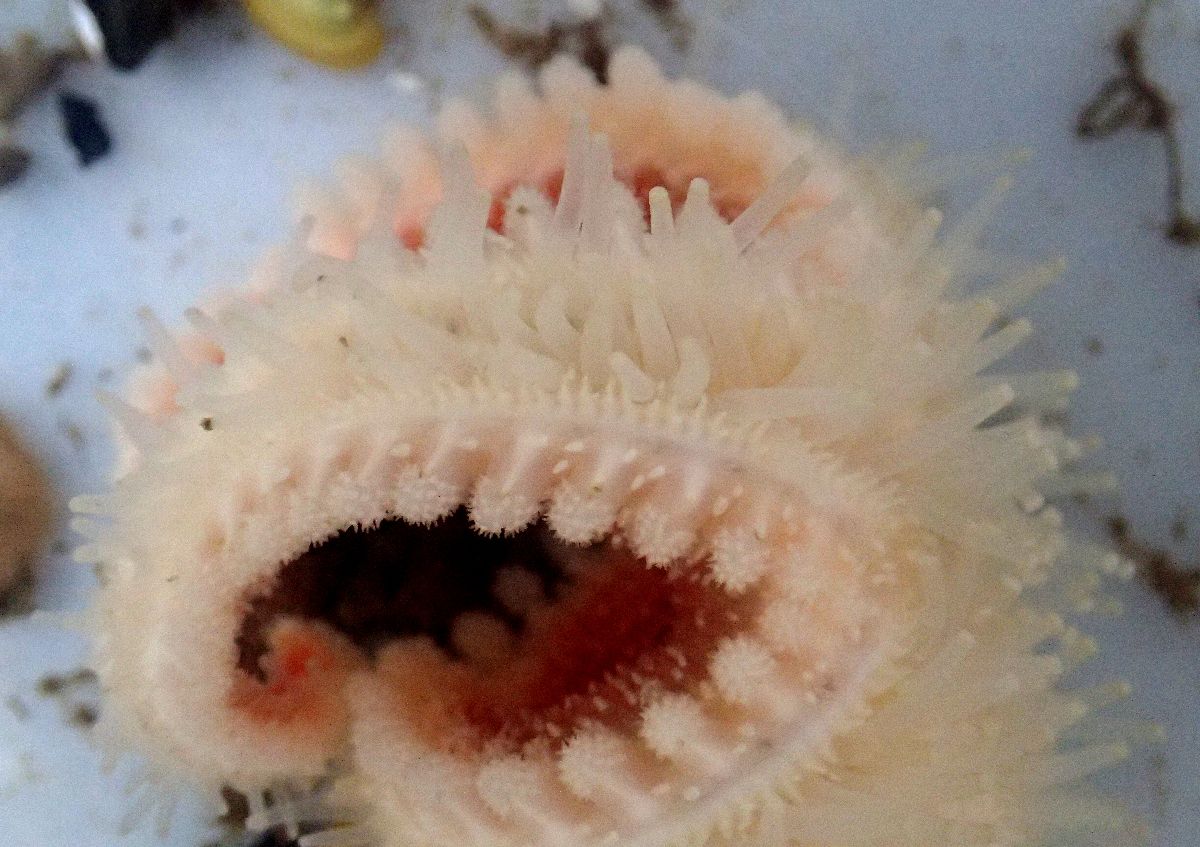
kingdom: Animalia
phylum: Echinodermata
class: Asteroidea
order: Forcipulatida
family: Asteriidae
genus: Urasterias
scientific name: Urasterias lincki
